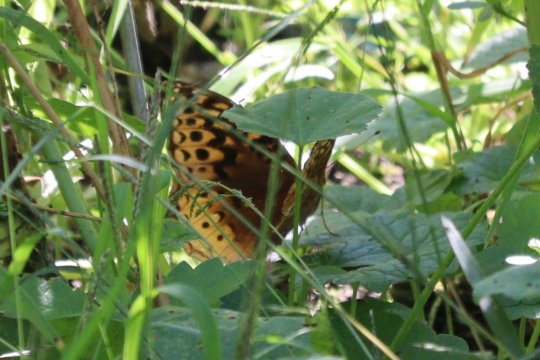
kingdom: Animalia
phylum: Arthropoda
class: Insecta
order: Lepidoptera
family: Nymphalidae
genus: Speyeria
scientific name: Speyeria cybele
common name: Great Spangled Fritillary
